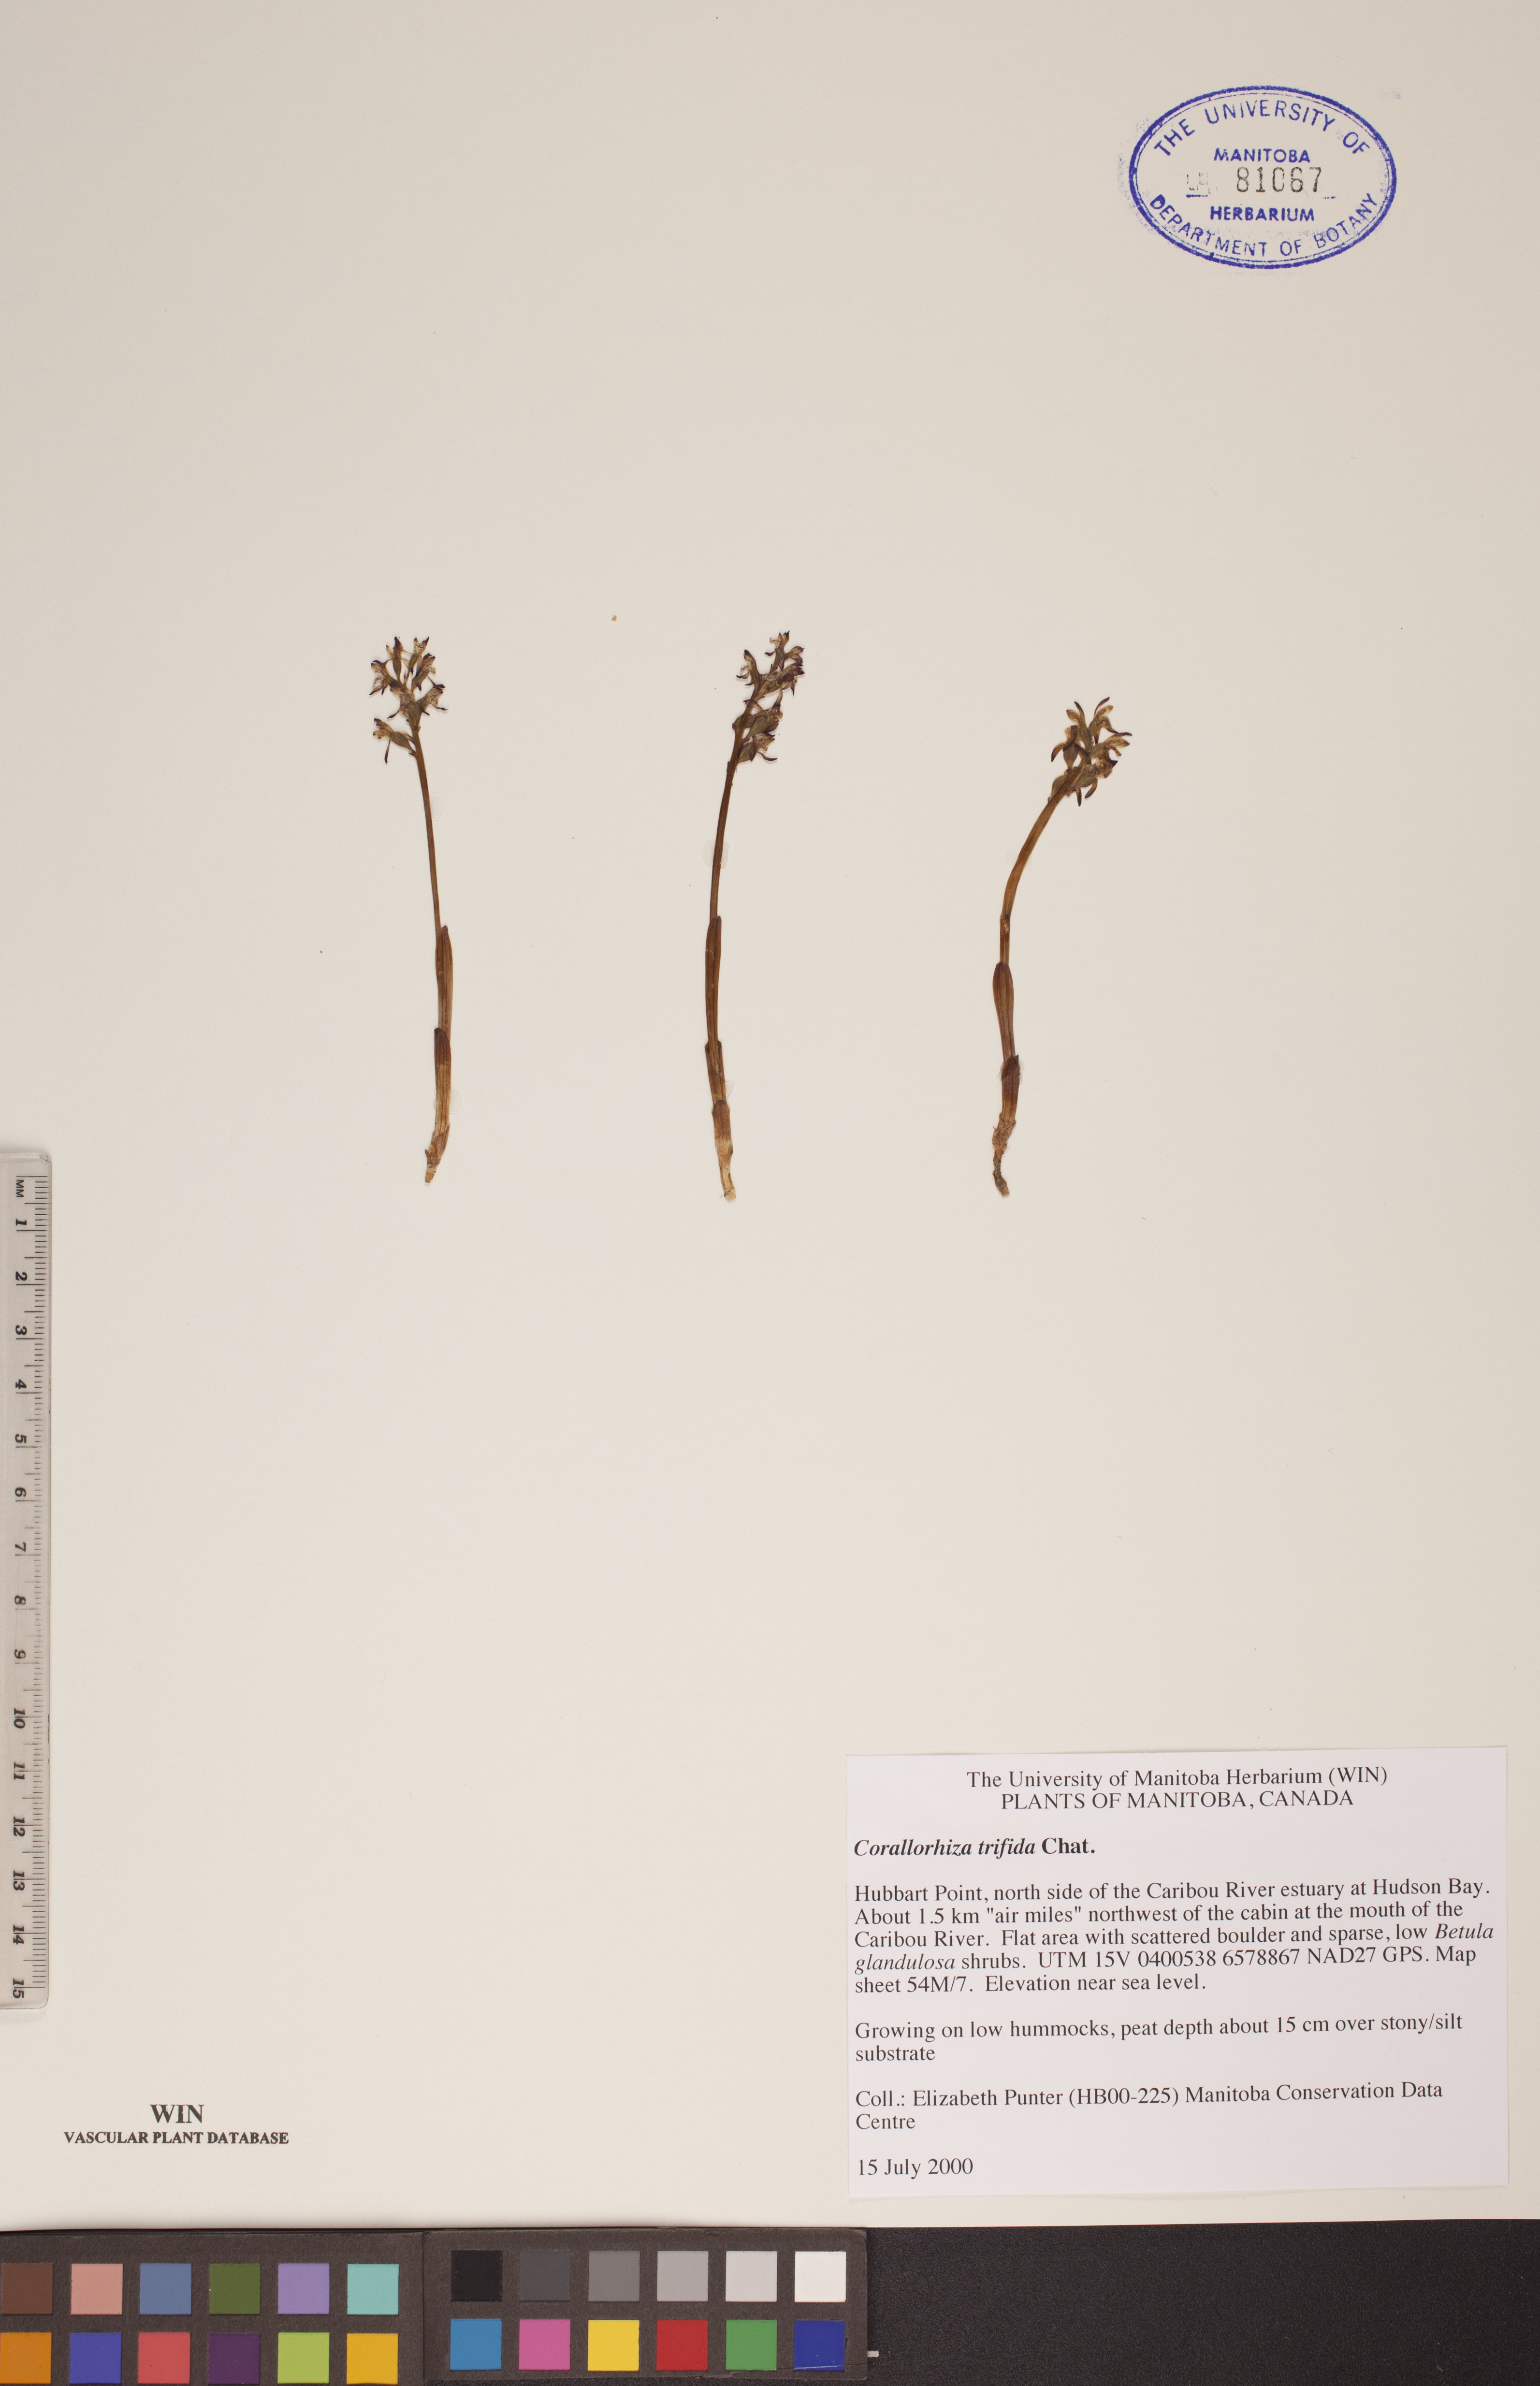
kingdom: Plantae
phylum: Tracheophyta
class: Liliopsida
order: Asparagales
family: Orchidaceae
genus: Corallorhiza
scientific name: Corallorhiza trifida
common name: Yellow coralroot
